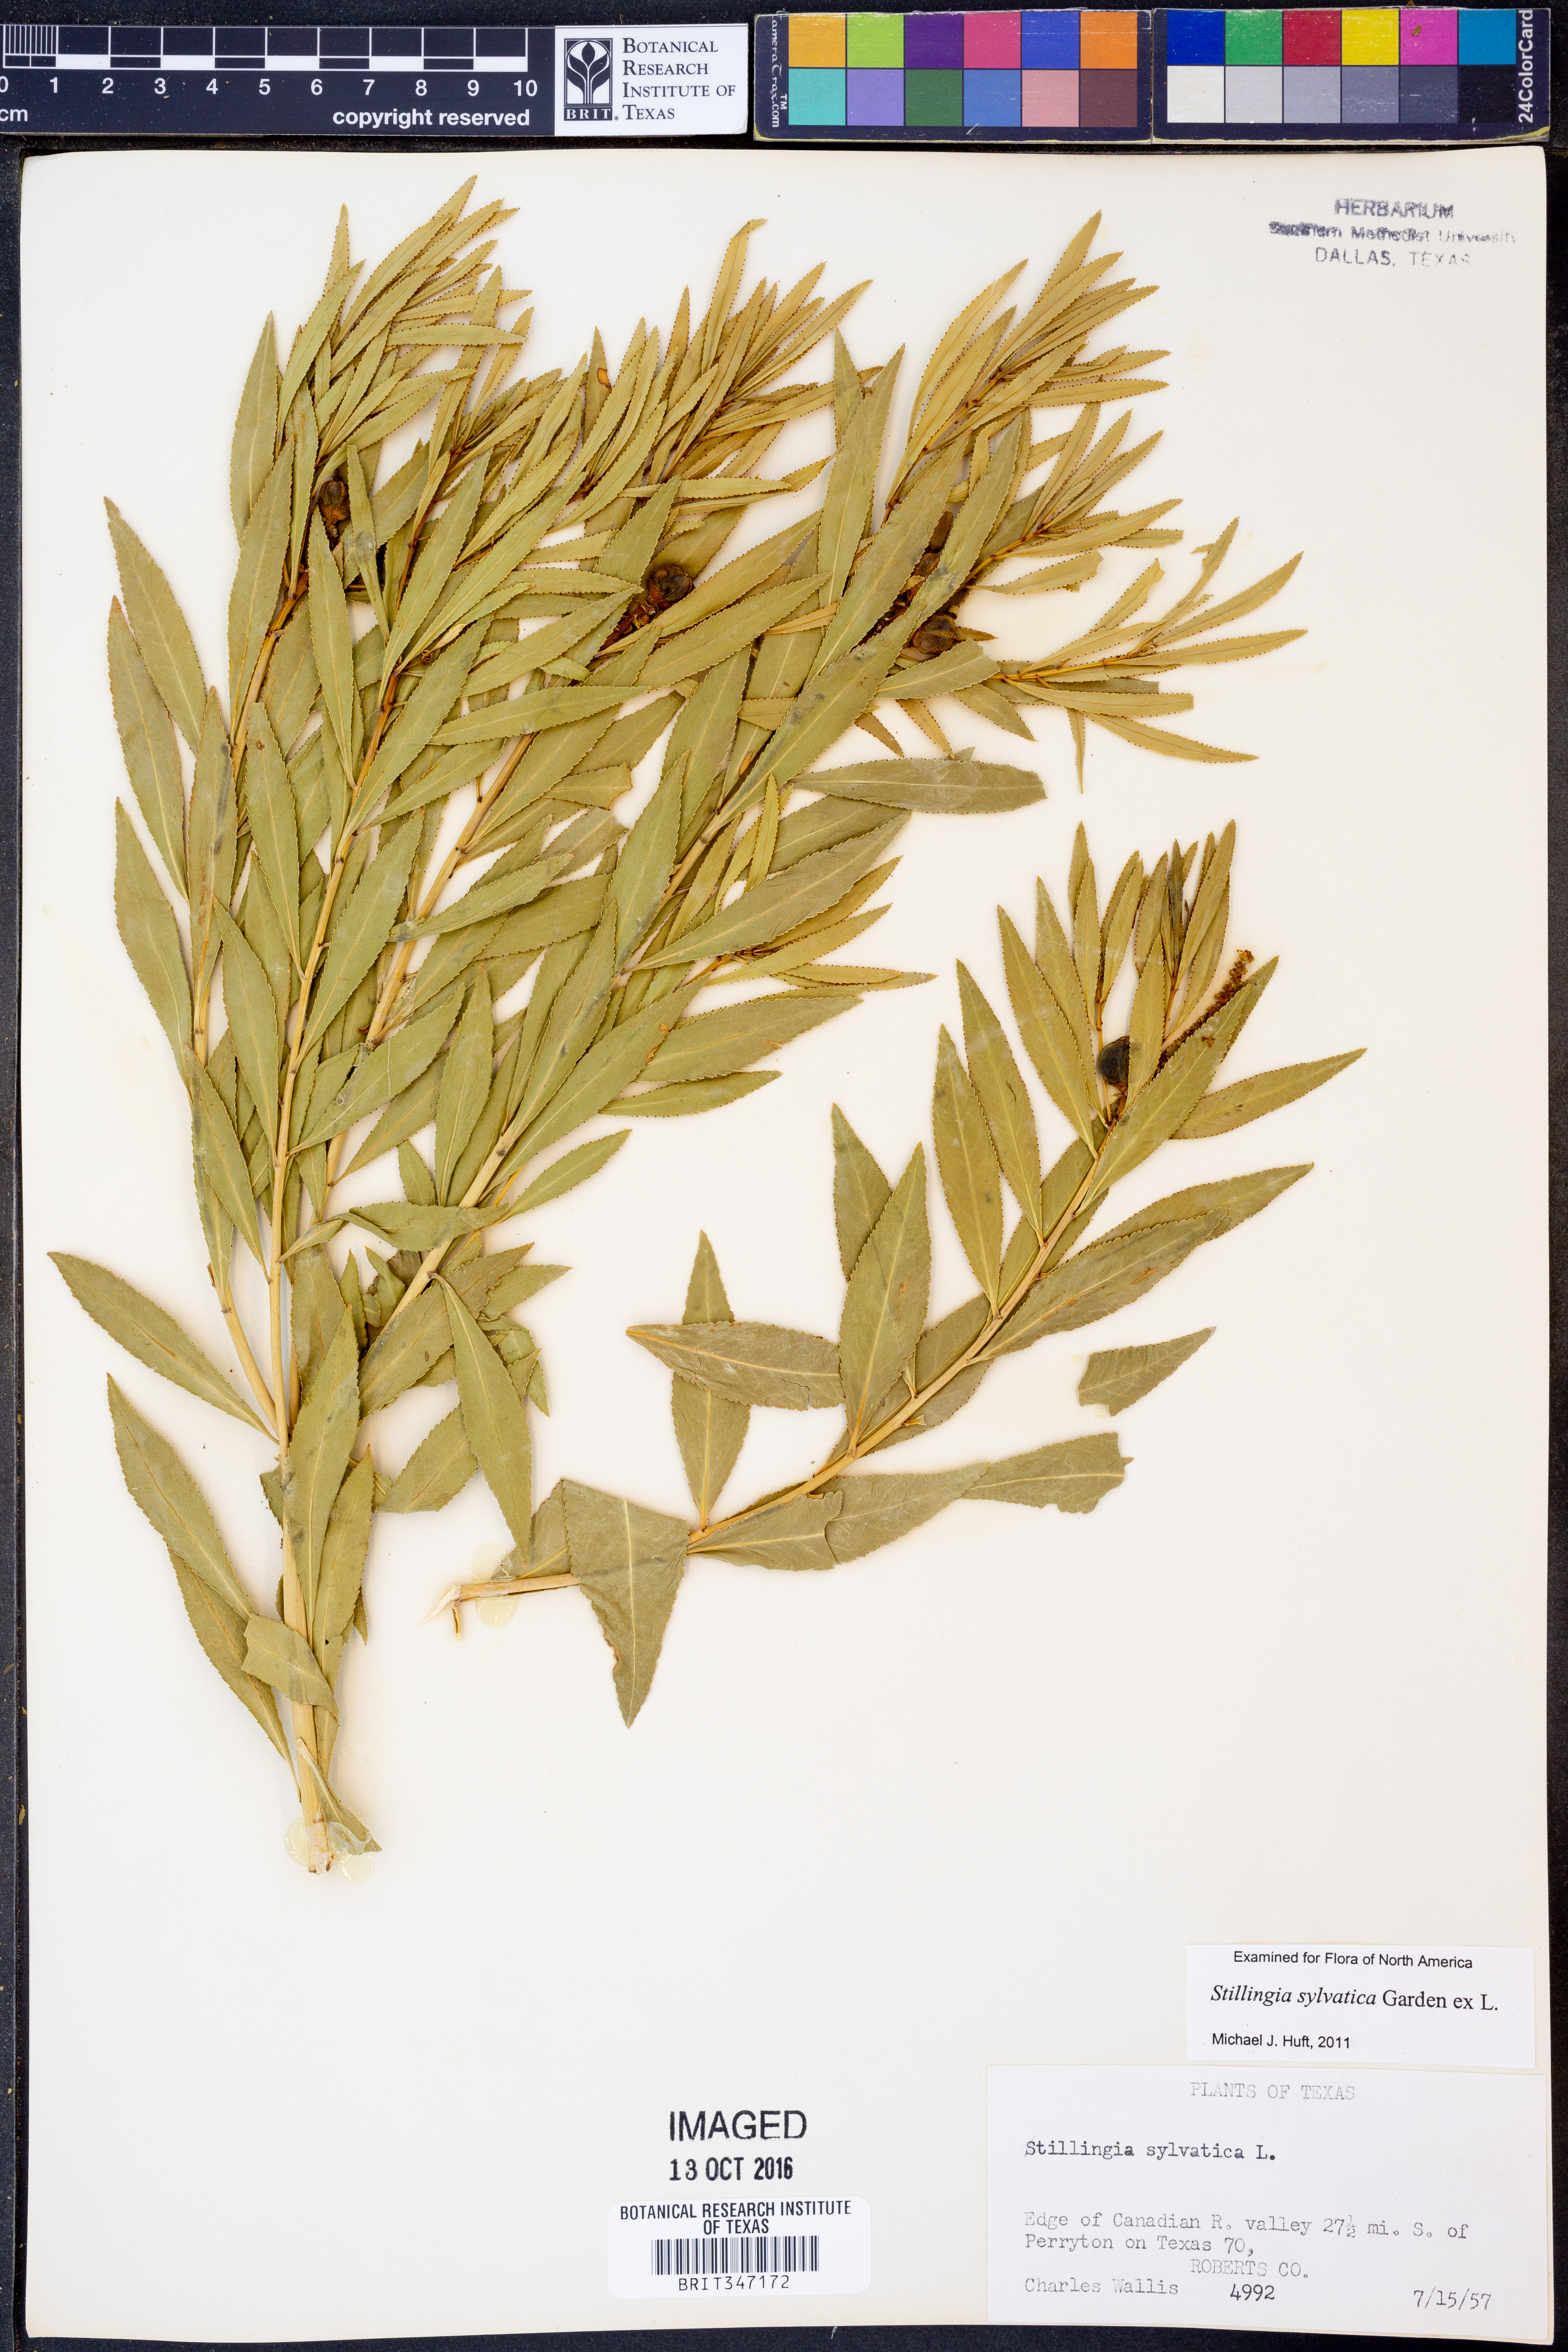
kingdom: Plantae
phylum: Tracheophyta
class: Magnoliopsida
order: Malpighiales
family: Euphorbiaceae
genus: Stillingia
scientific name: Stillingia sylvatica
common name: Queen's-delight
